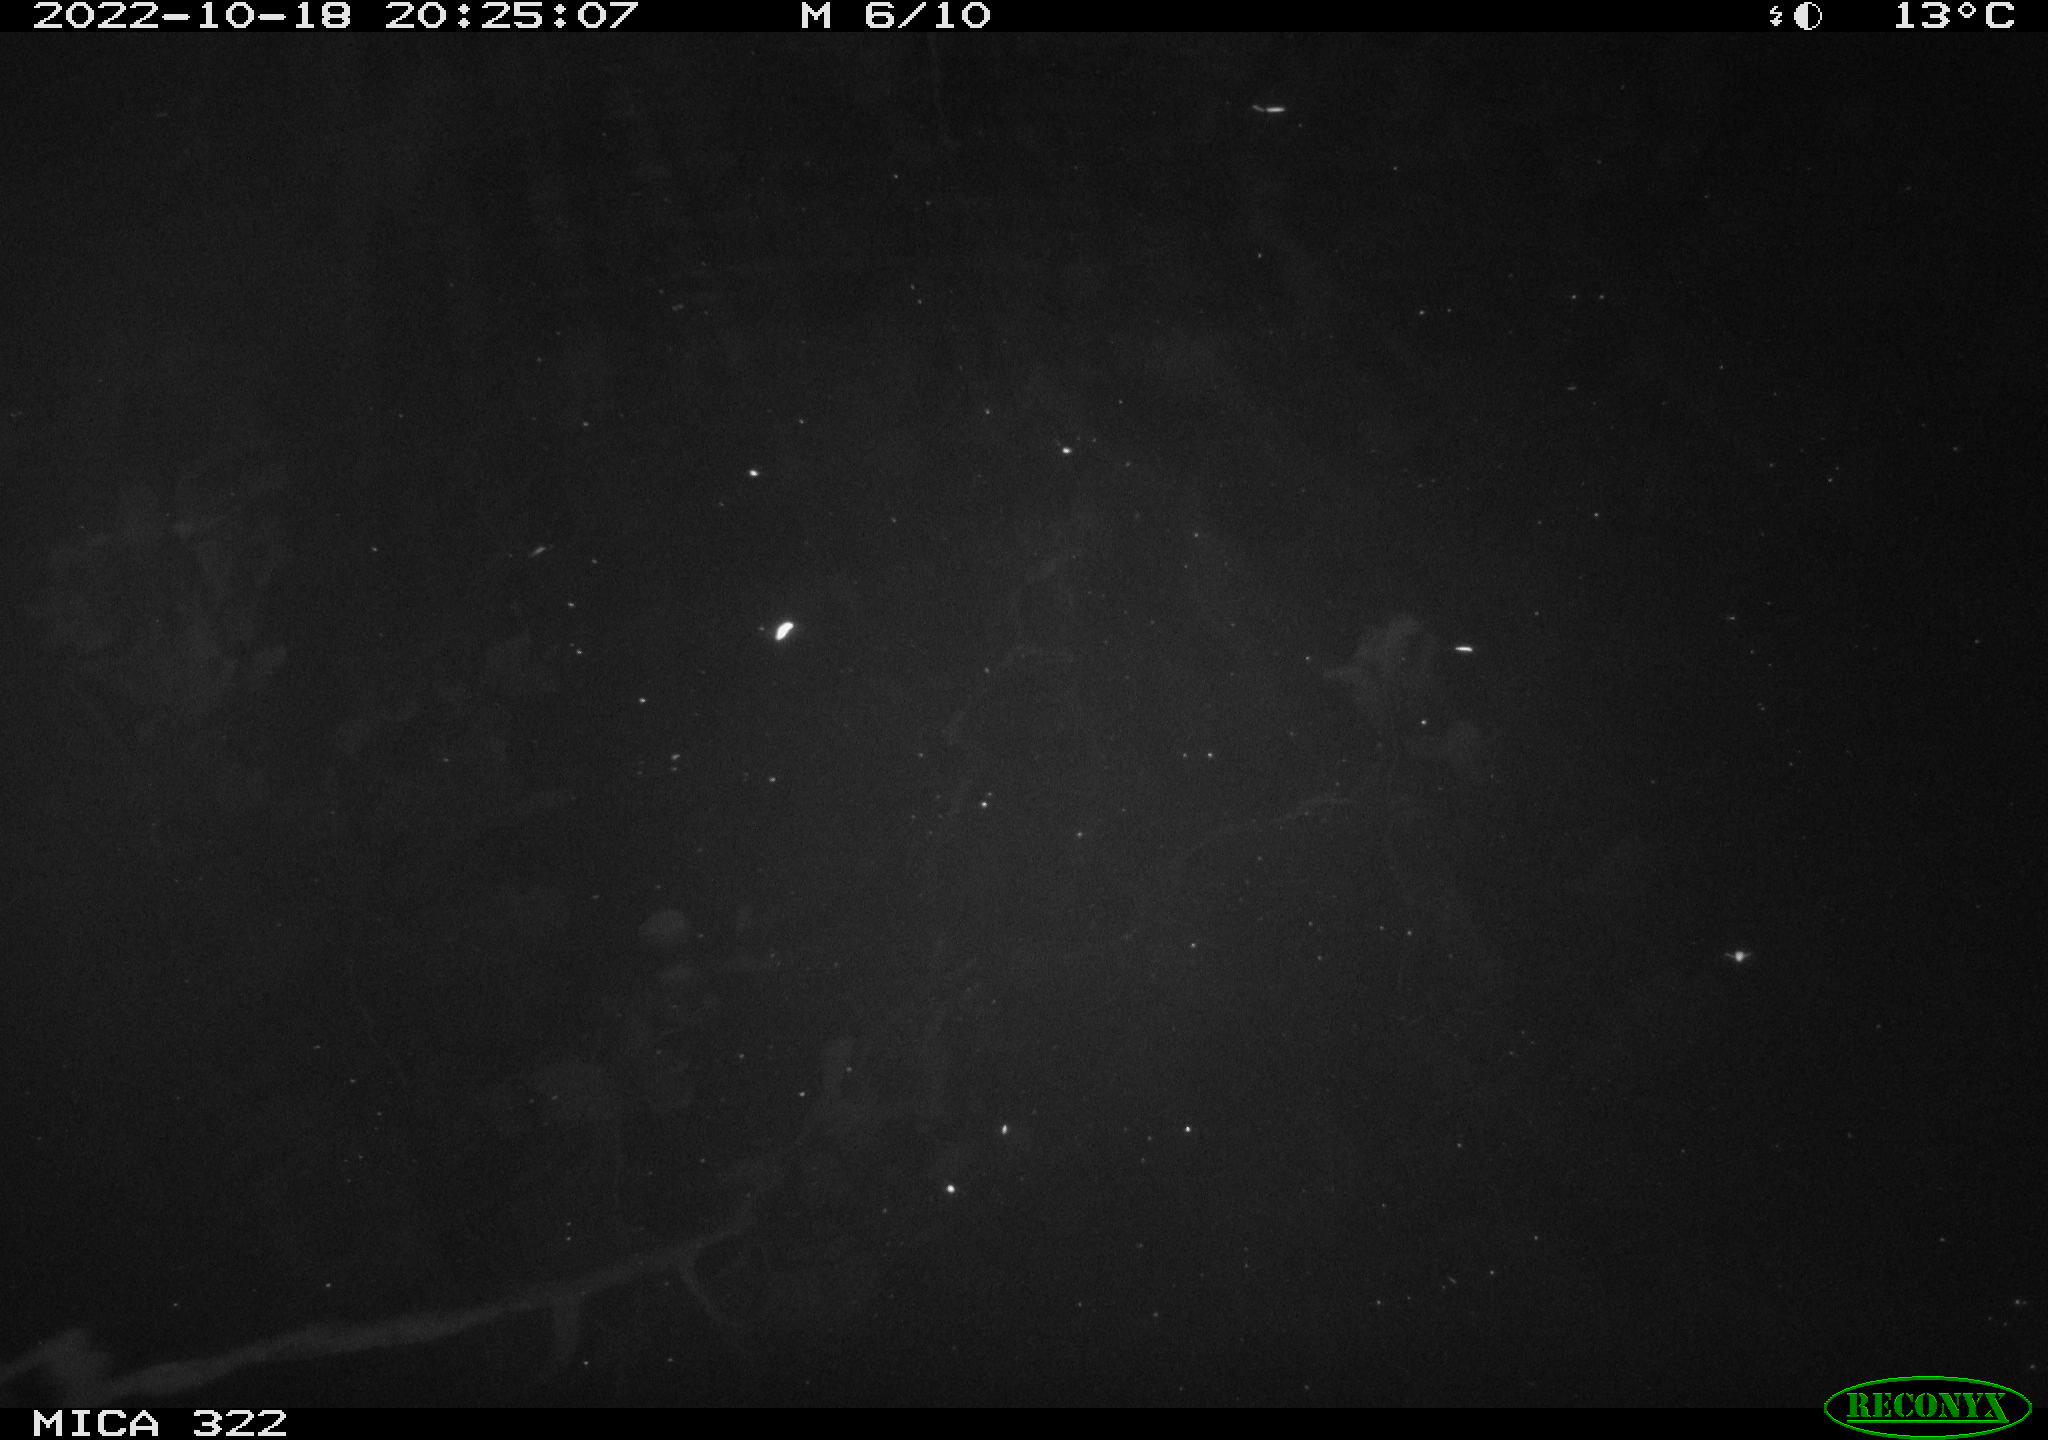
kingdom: Animalia
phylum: Chordata
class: Mammalia
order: Rodentia
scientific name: Rodentia
